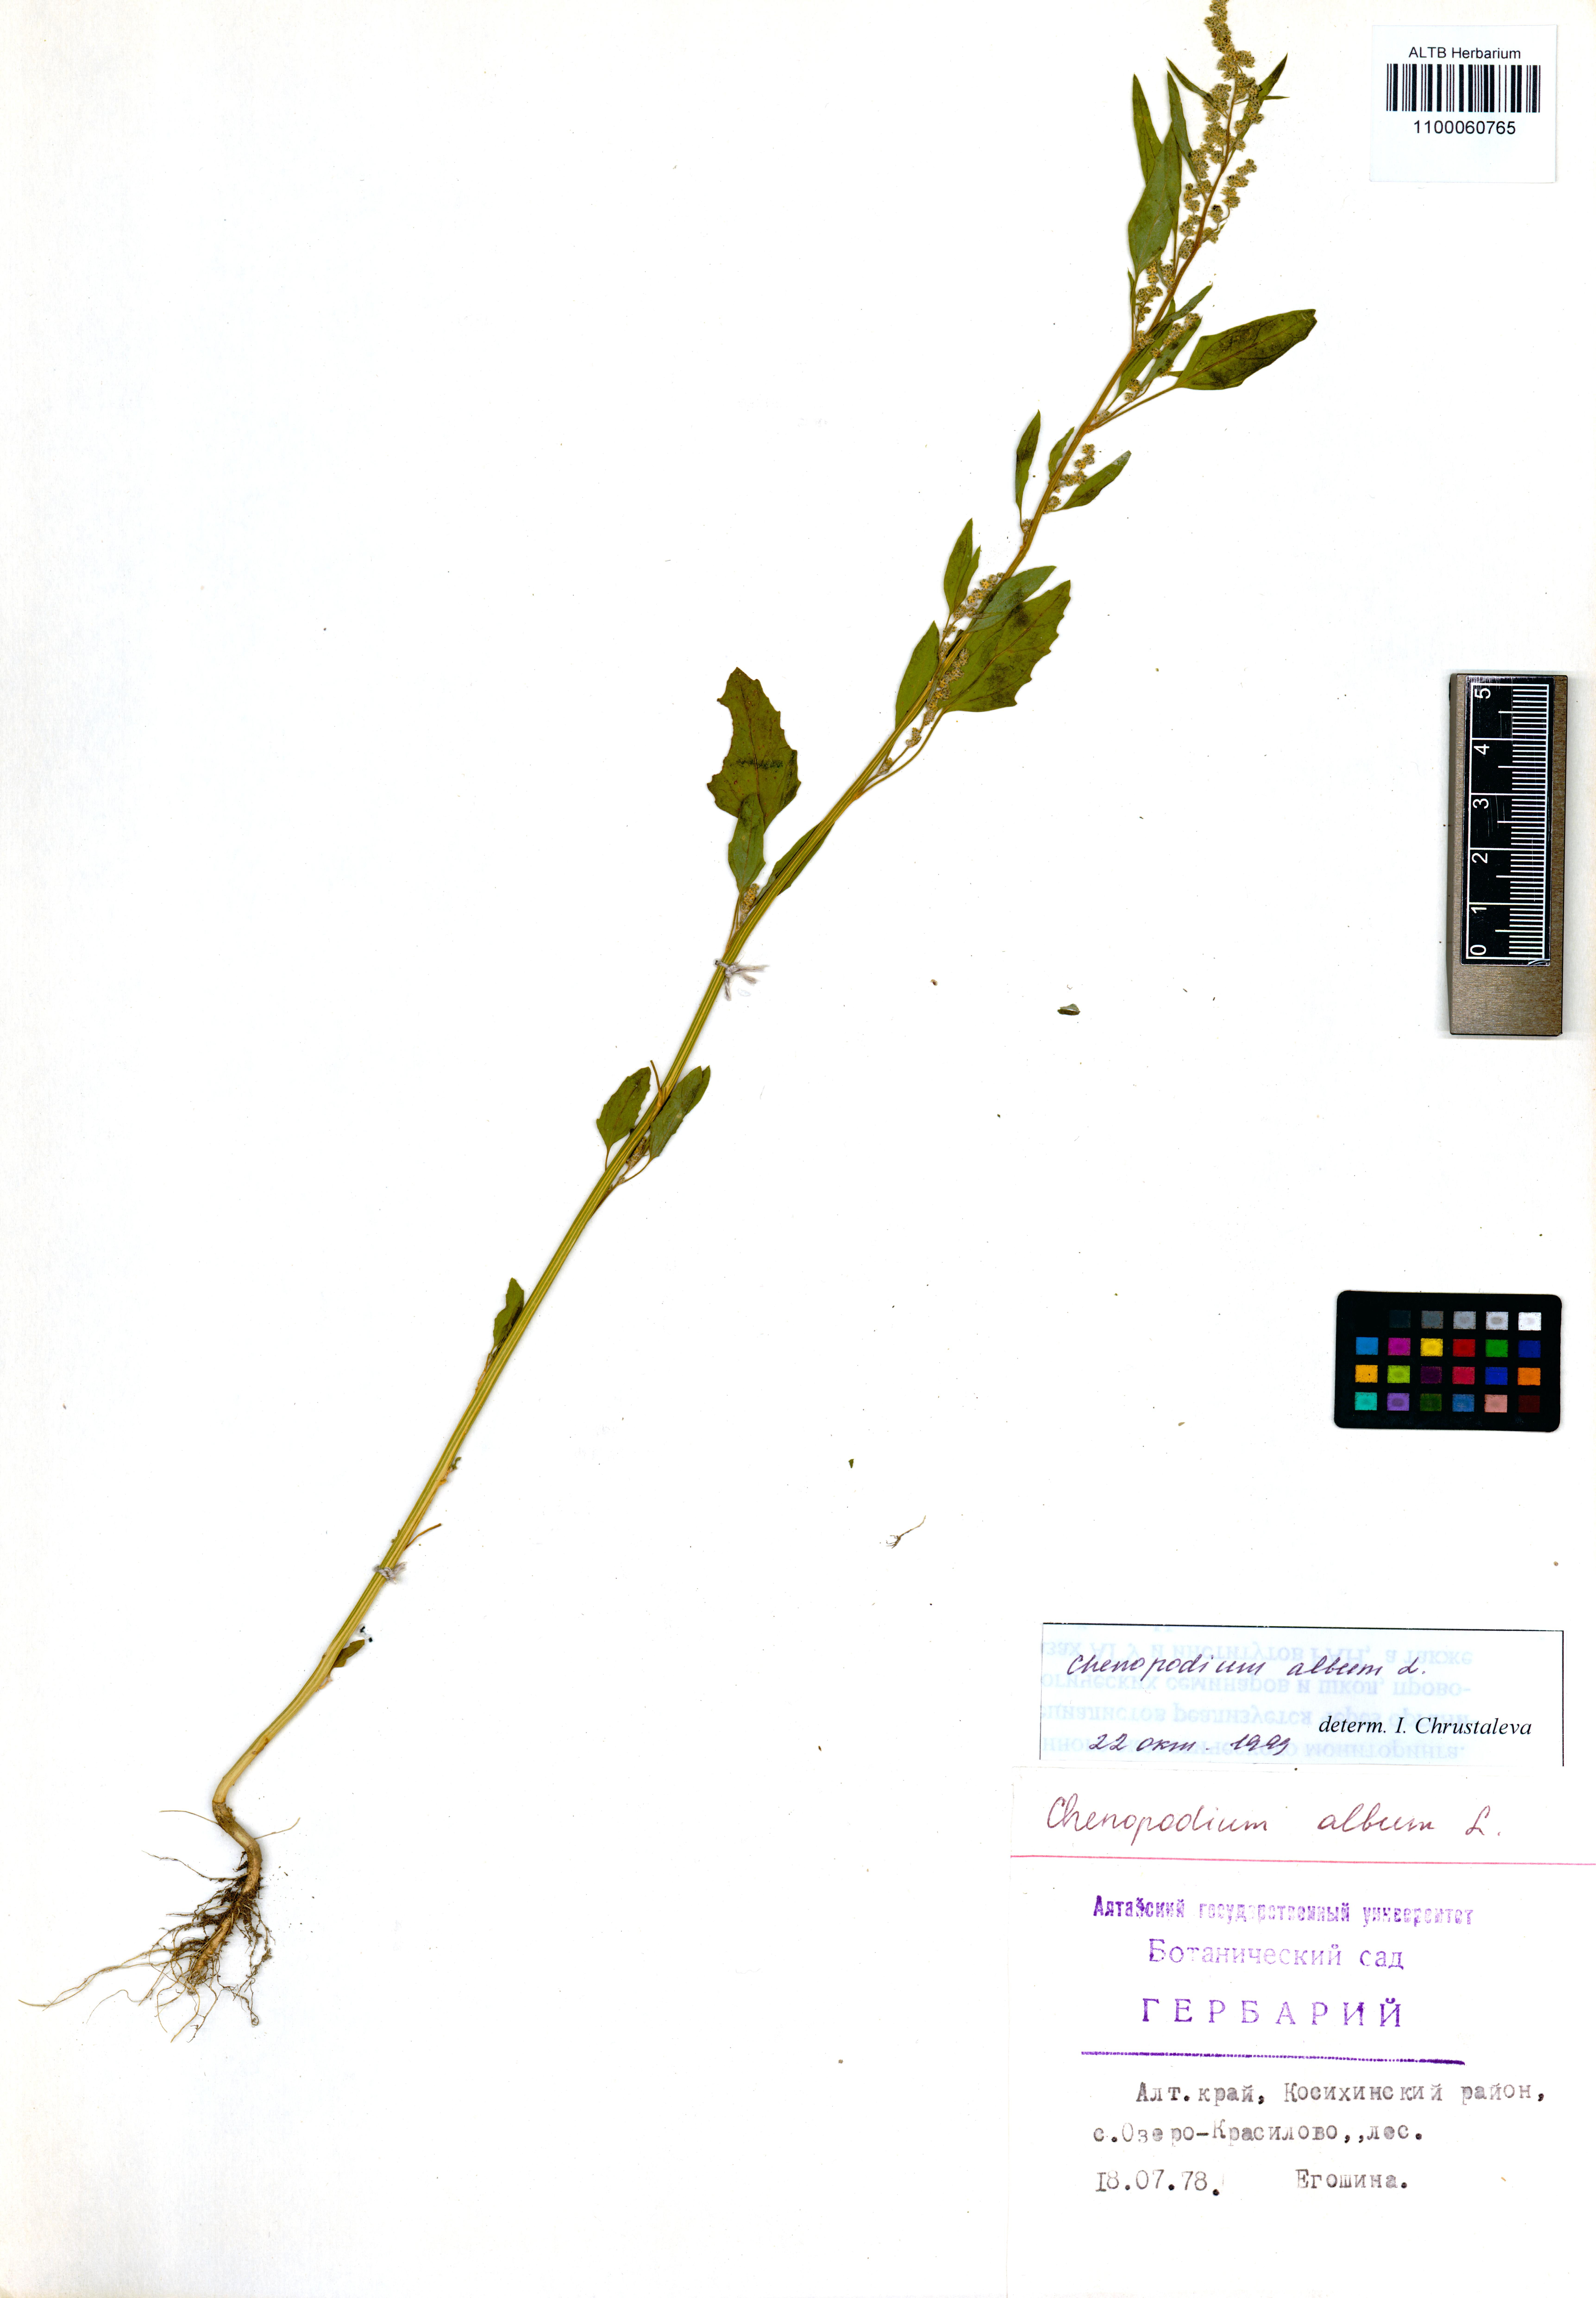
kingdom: Plantae
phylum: Tracheophyta
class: Magnoliopsida
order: Caryophyllales
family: Amaranthaceae
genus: Chenopodium
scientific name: Chenopodium album
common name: Fat-hen
